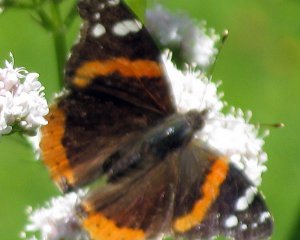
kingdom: Animalia
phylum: Arthropoda
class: Insecta
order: Lepidoptera
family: Nymphalidae
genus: Vanessa
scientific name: Vanessa atalanta
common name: Red Admiral
